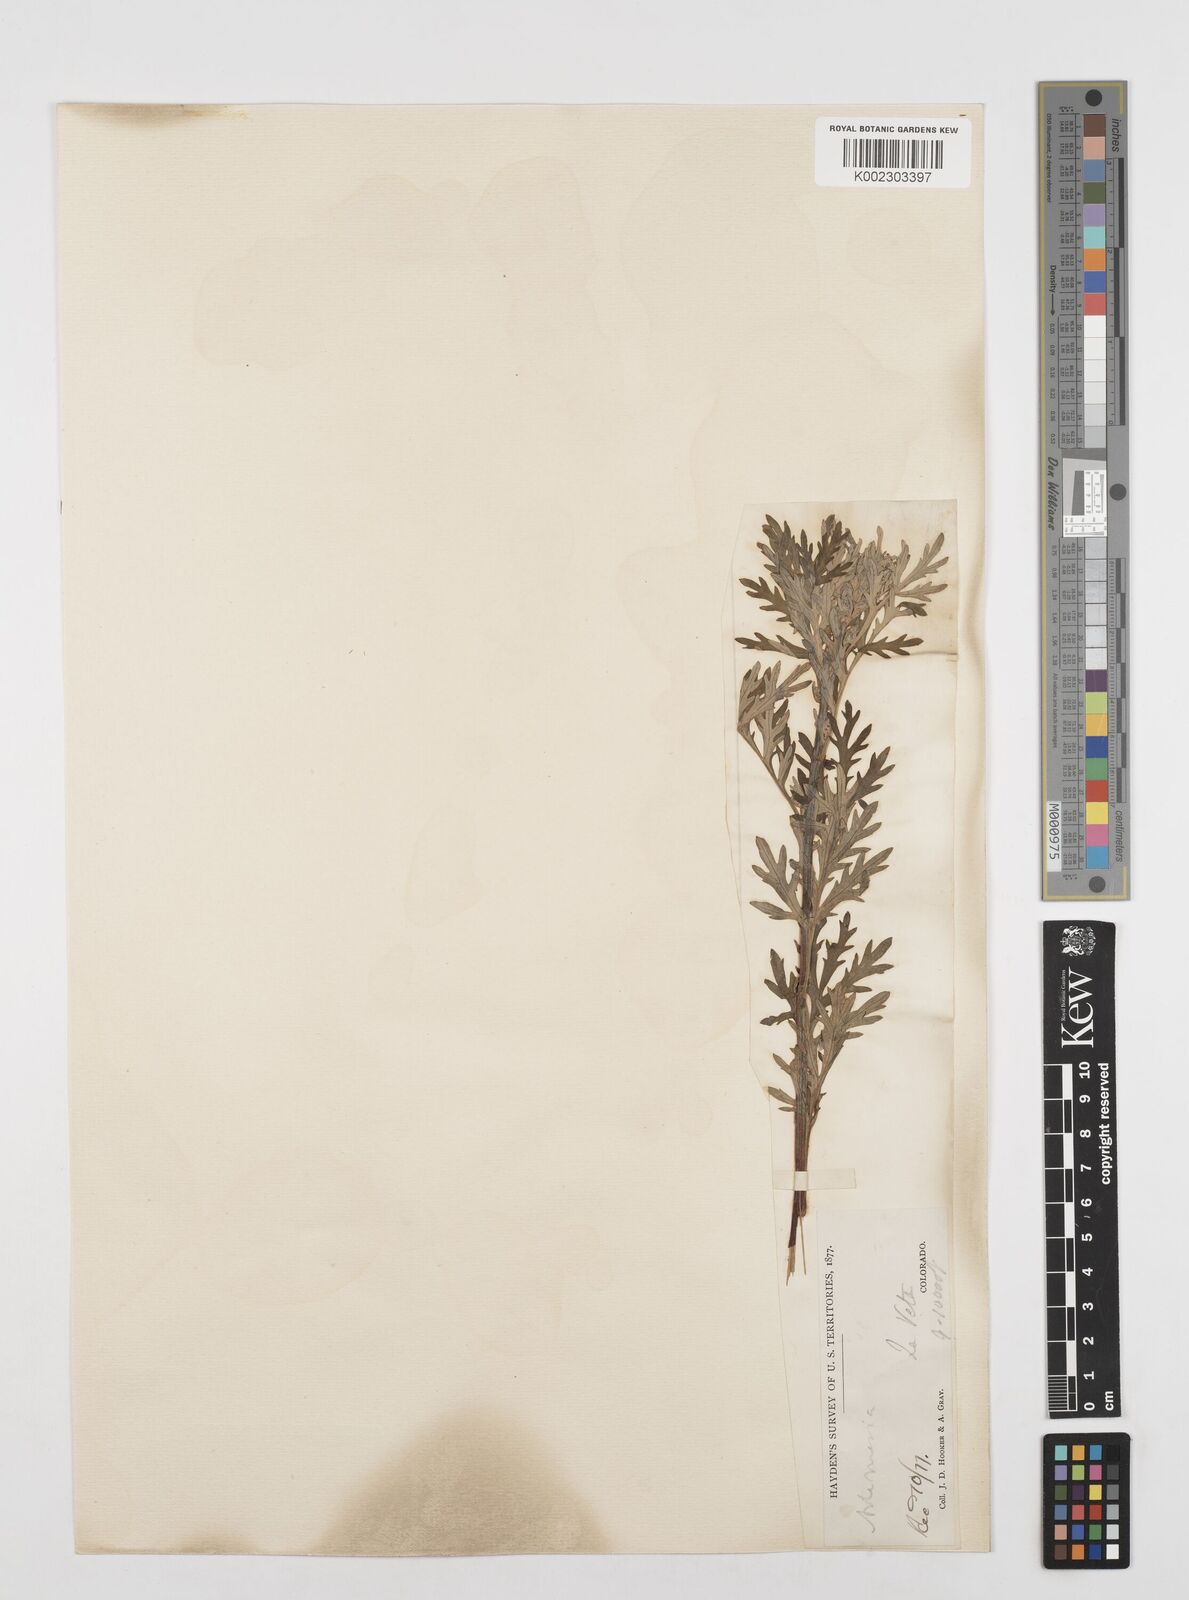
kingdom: Plantae
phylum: Tracheophyta
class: Magnoliopsida
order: Asterales
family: Asteraceae
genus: Artemisia
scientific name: Artemisia
